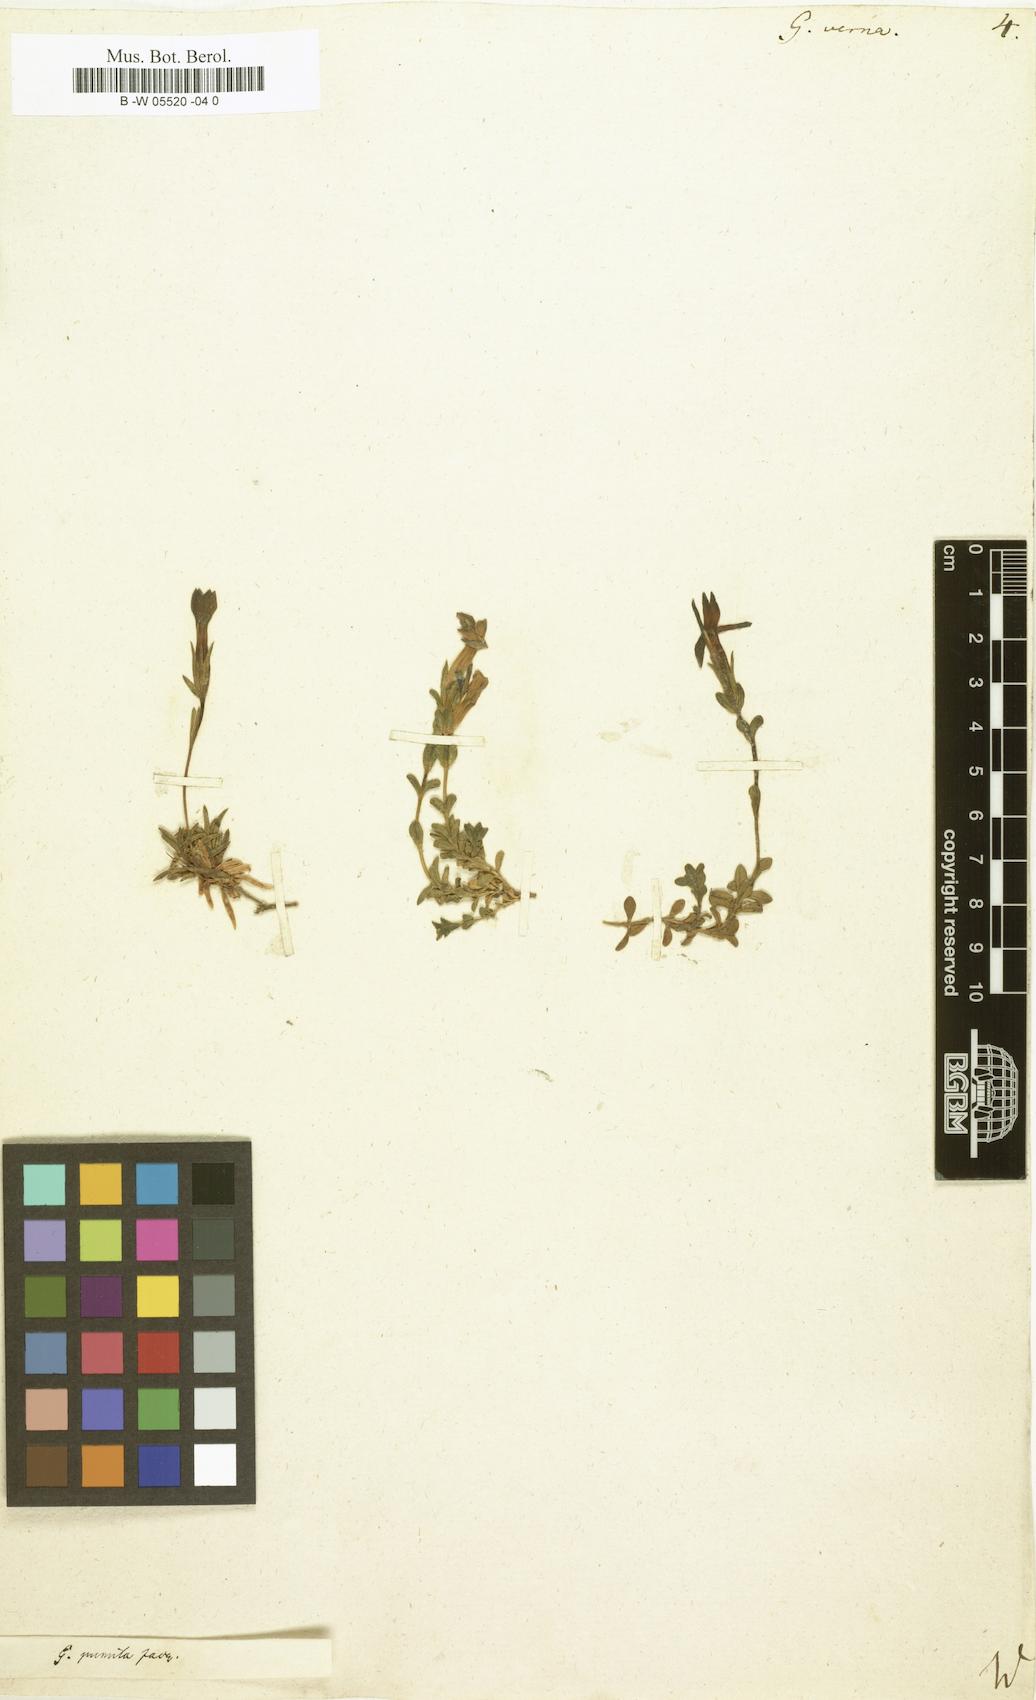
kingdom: Plantae
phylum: Tracheophyta
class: Magnoliopsida
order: Gentianales
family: Gentianaceae
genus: Gentiana
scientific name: Gentiana verna
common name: Spring gentian
